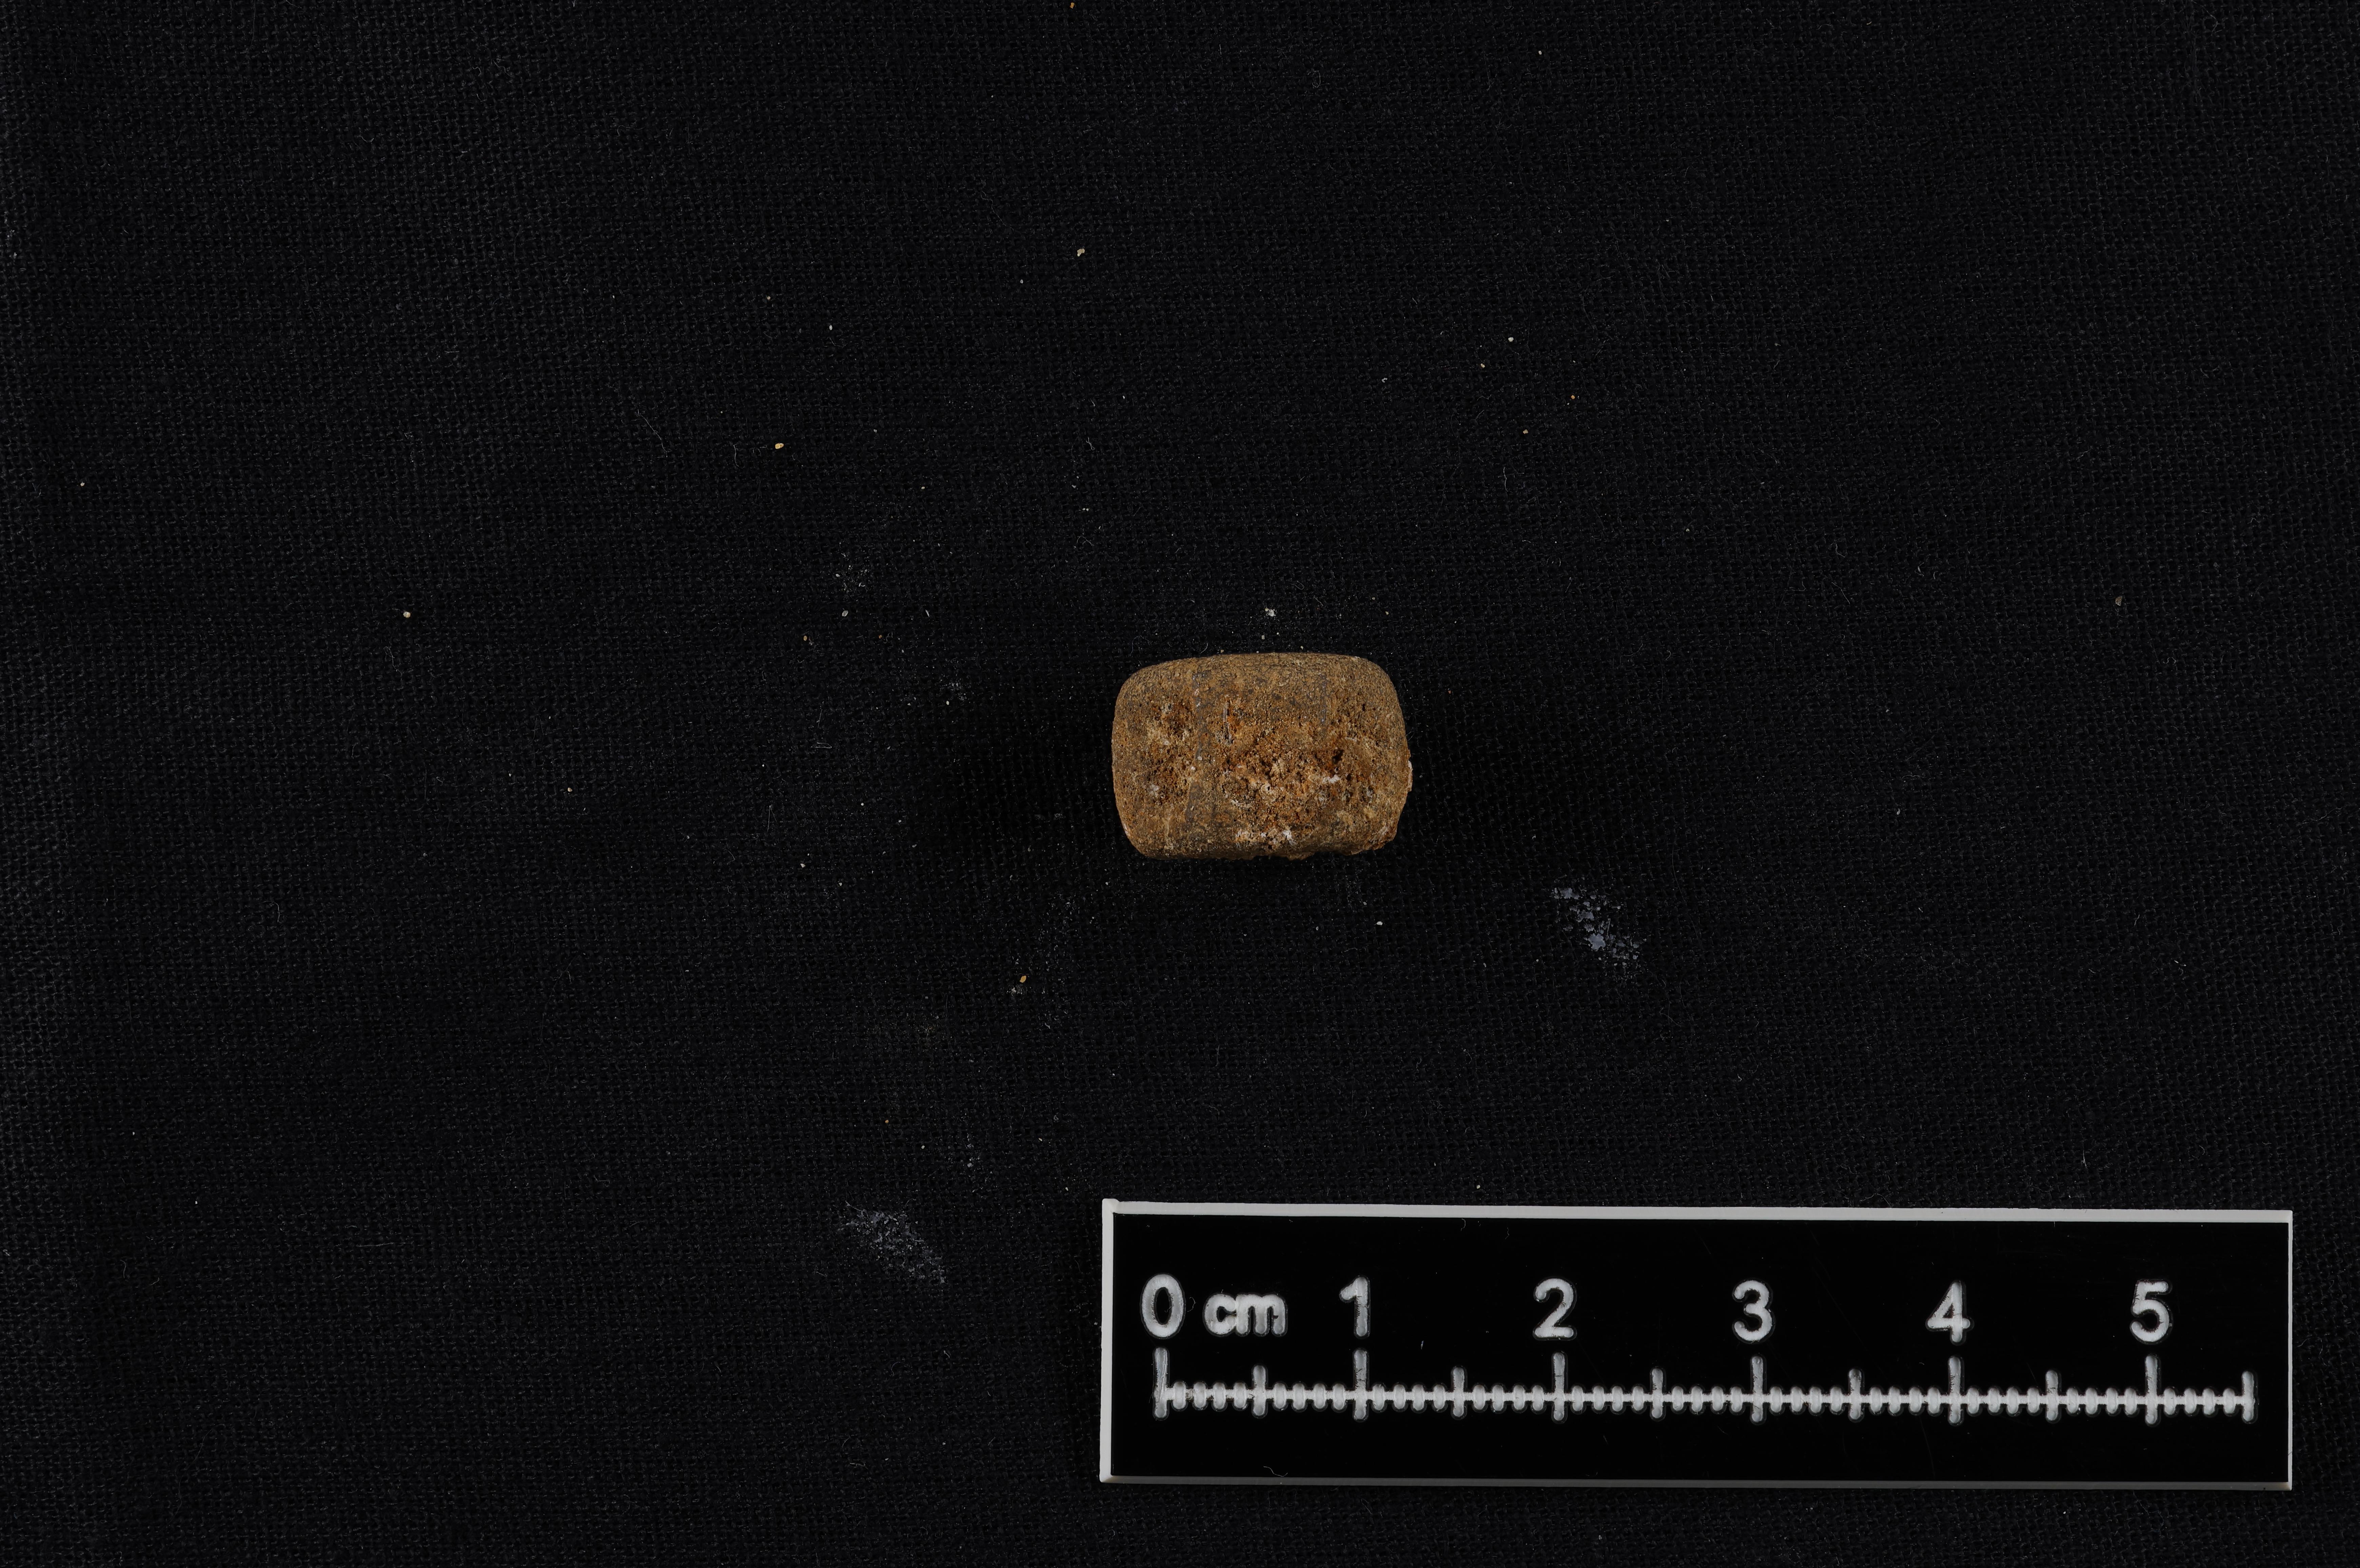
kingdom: Plantae
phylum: Rhodophyta
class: Florideophyceae
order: Ceramiales
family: Rhodomelaceae
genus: Vertebrata
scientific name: Vertebrata
